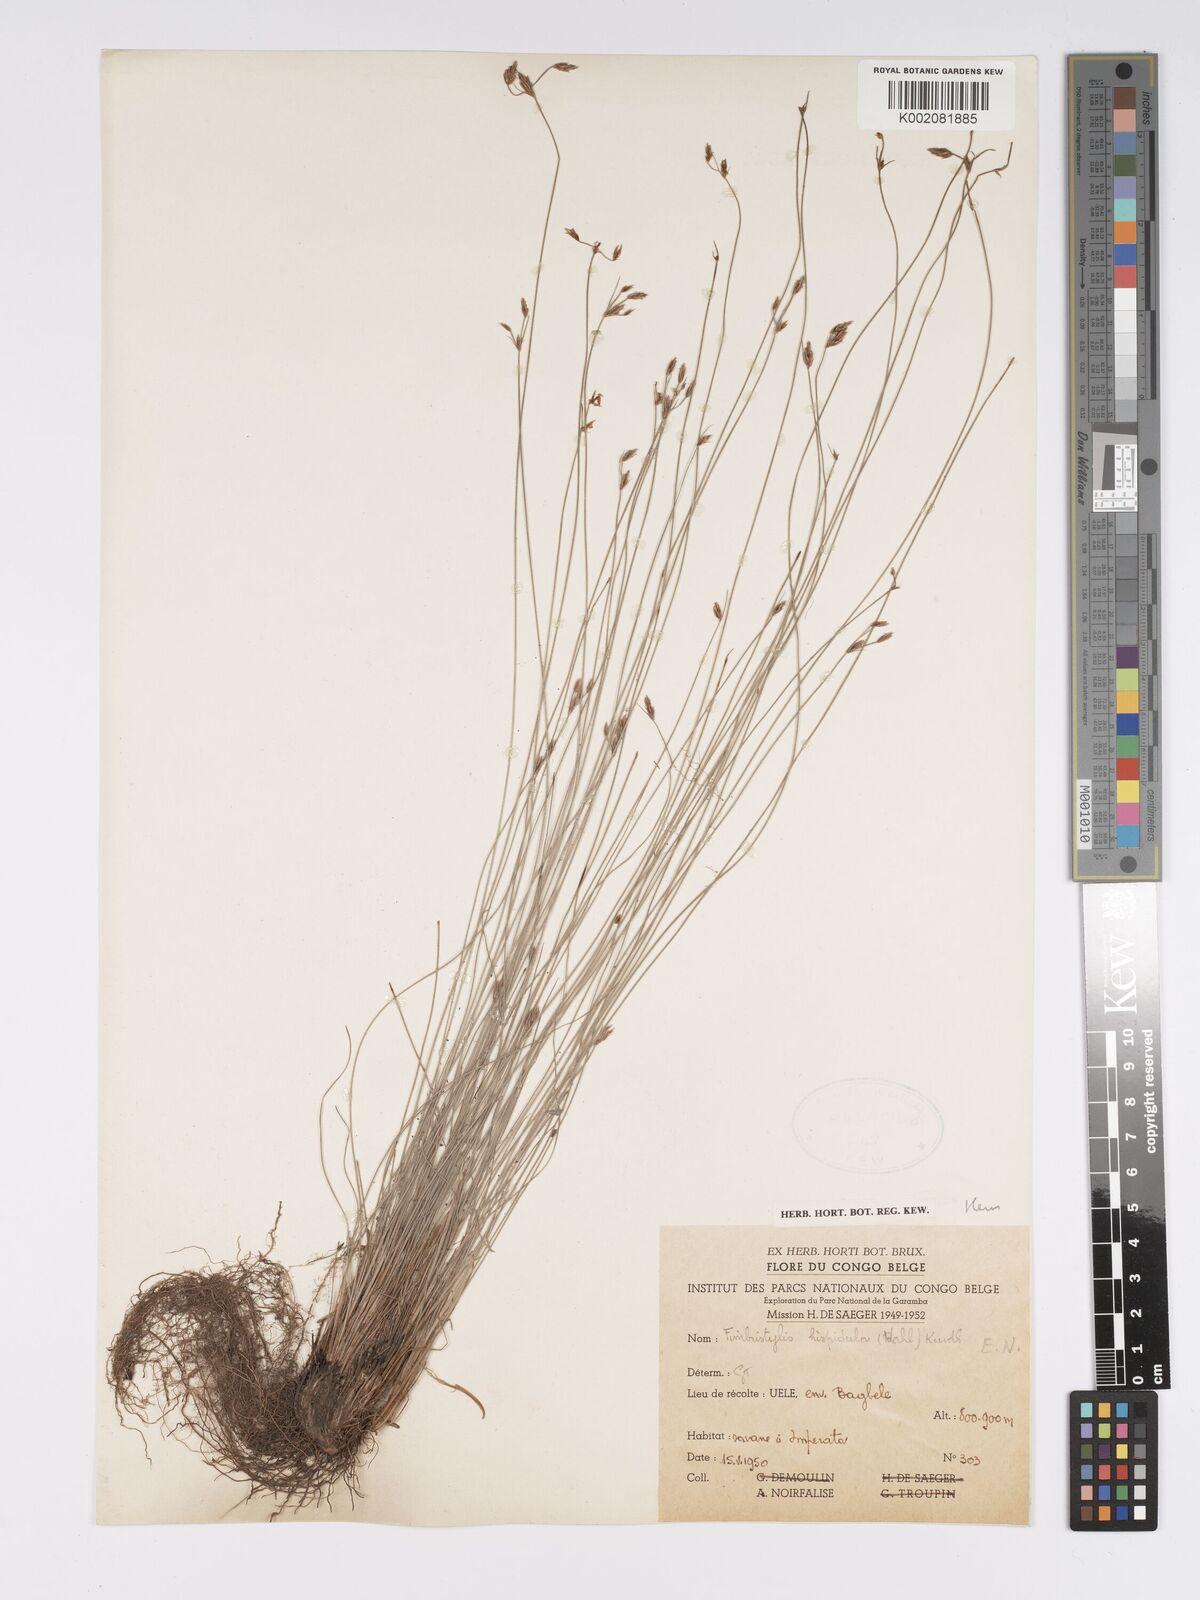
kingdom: Plantae
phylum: Tracheophyta
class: Liliopsida
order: Poales
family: Cyperaceae
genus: Bulbostylis
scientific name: Bulbostylis hispidula
